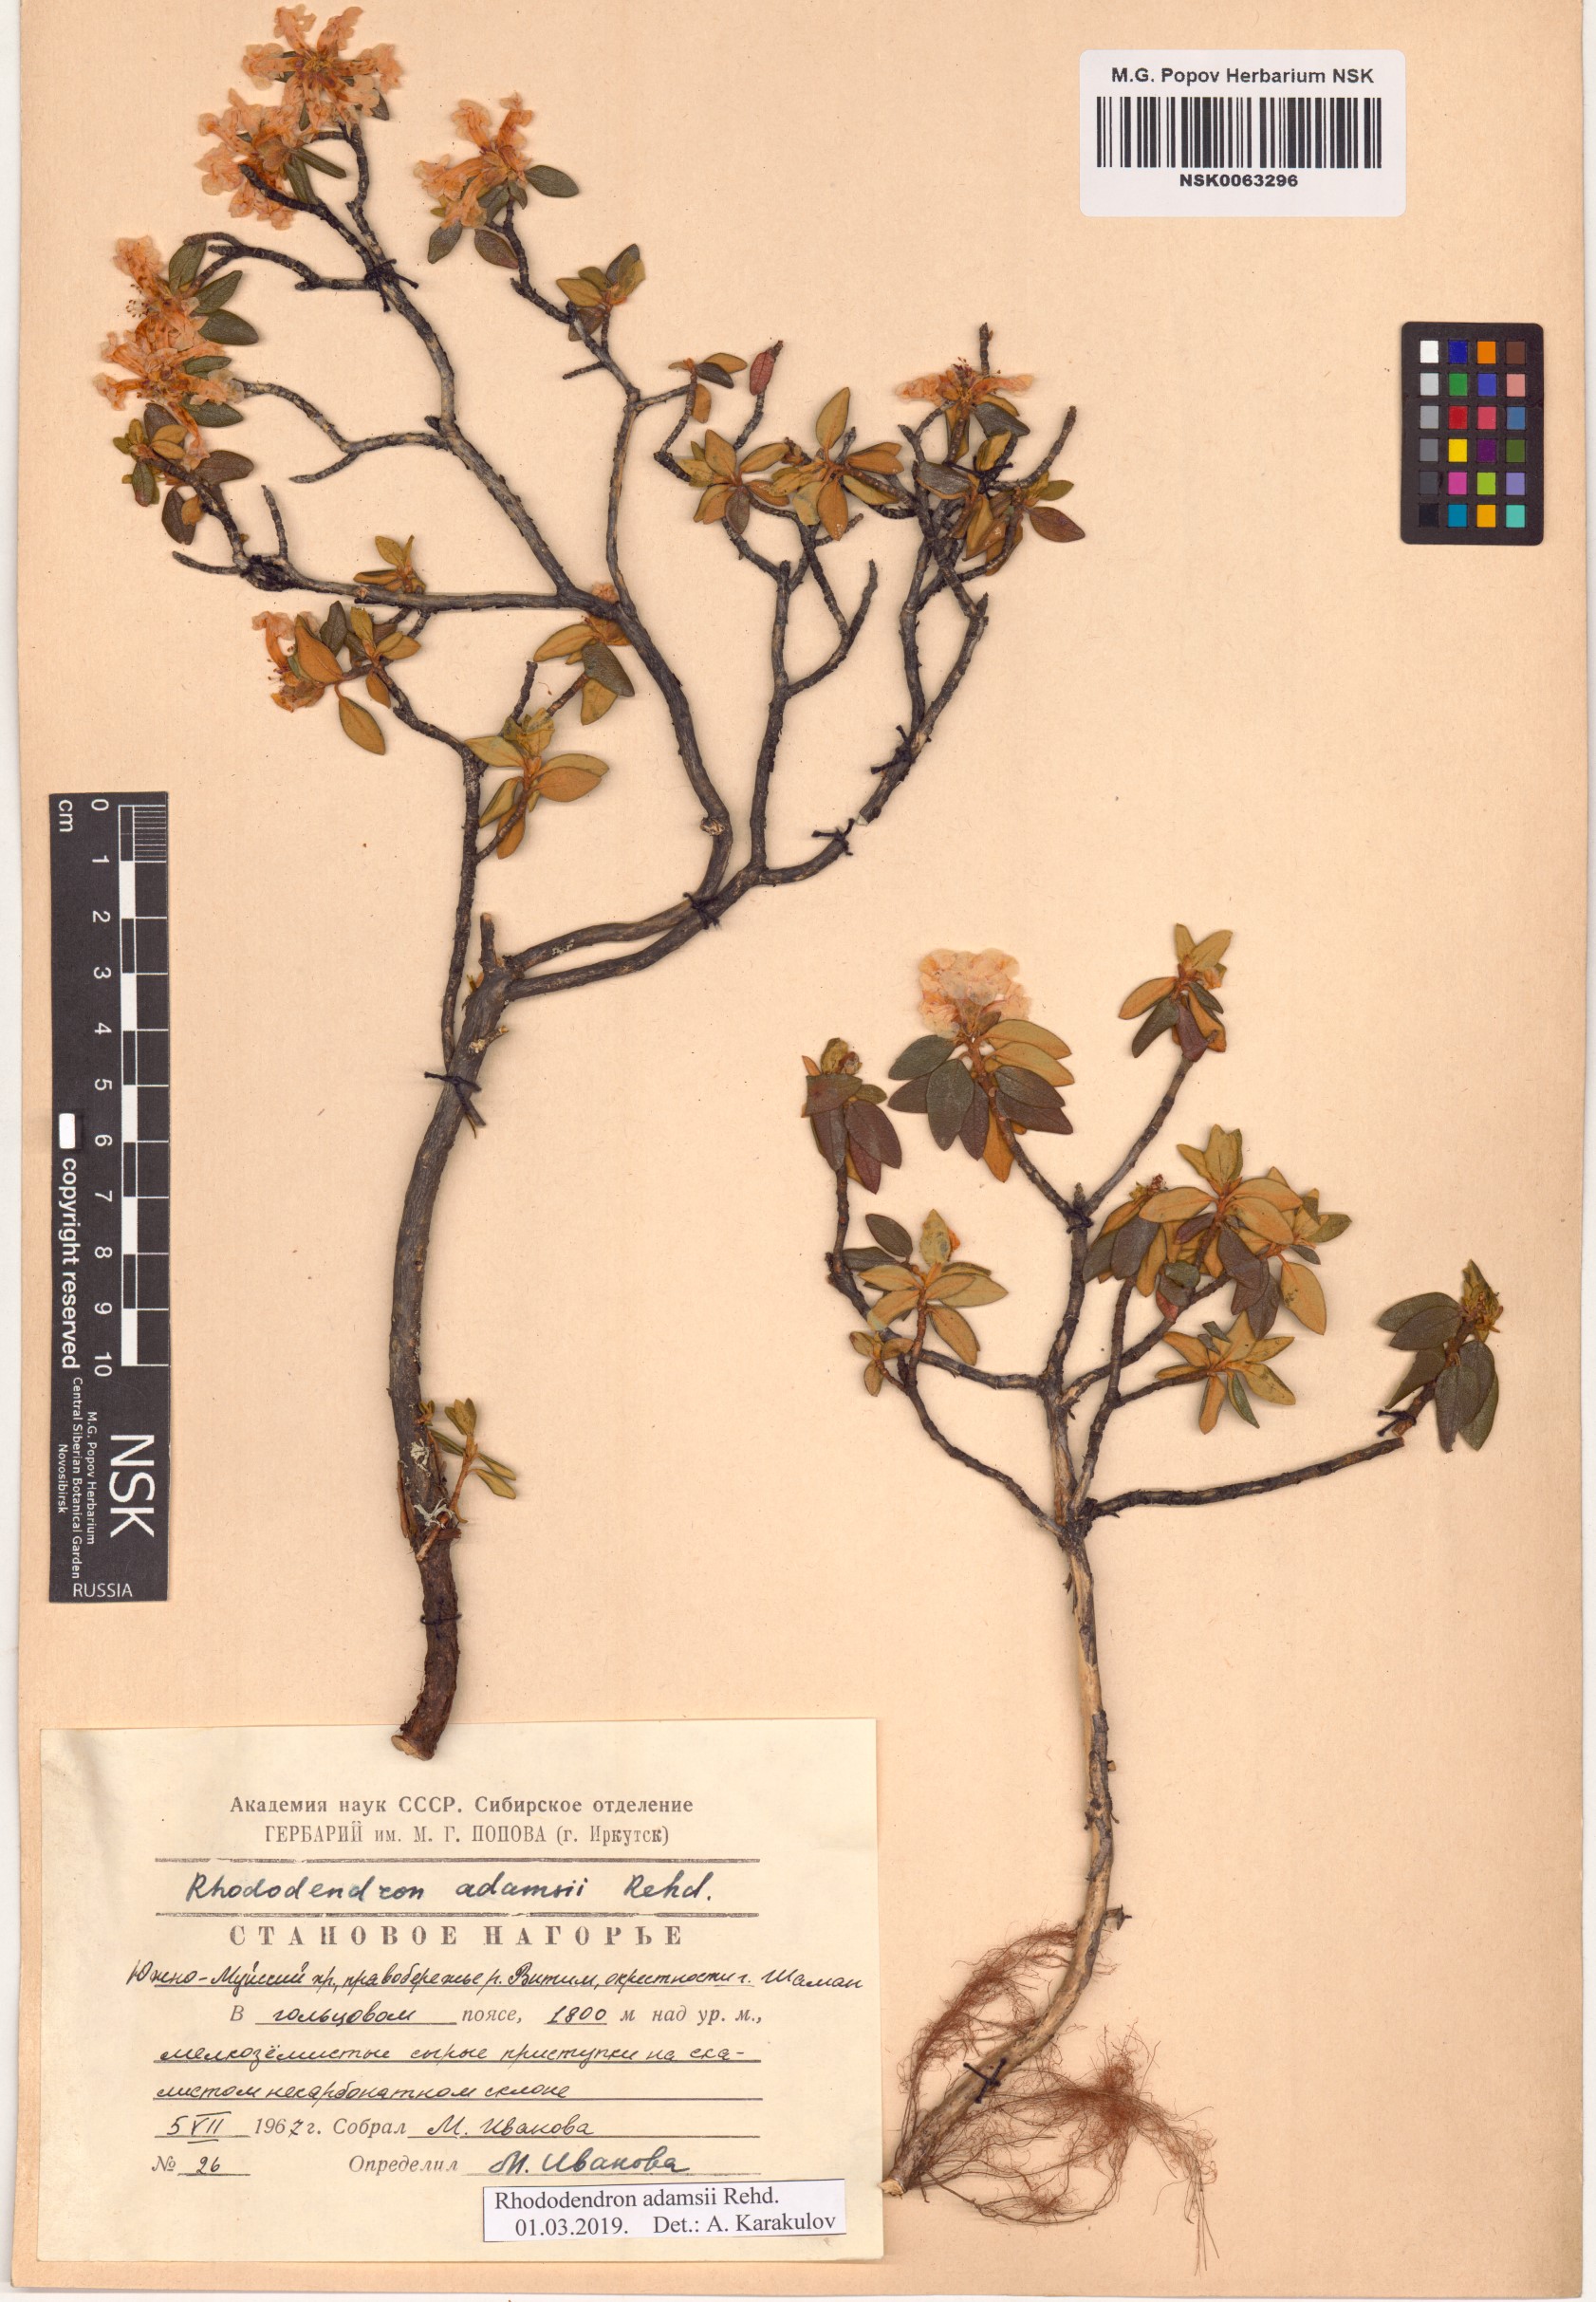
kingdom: Plantae
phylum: Tracheophyta
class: Magnoliopsida
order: Ericales
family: Ericaceae
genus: Rhododendron
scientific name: Rhododendron adamsii
